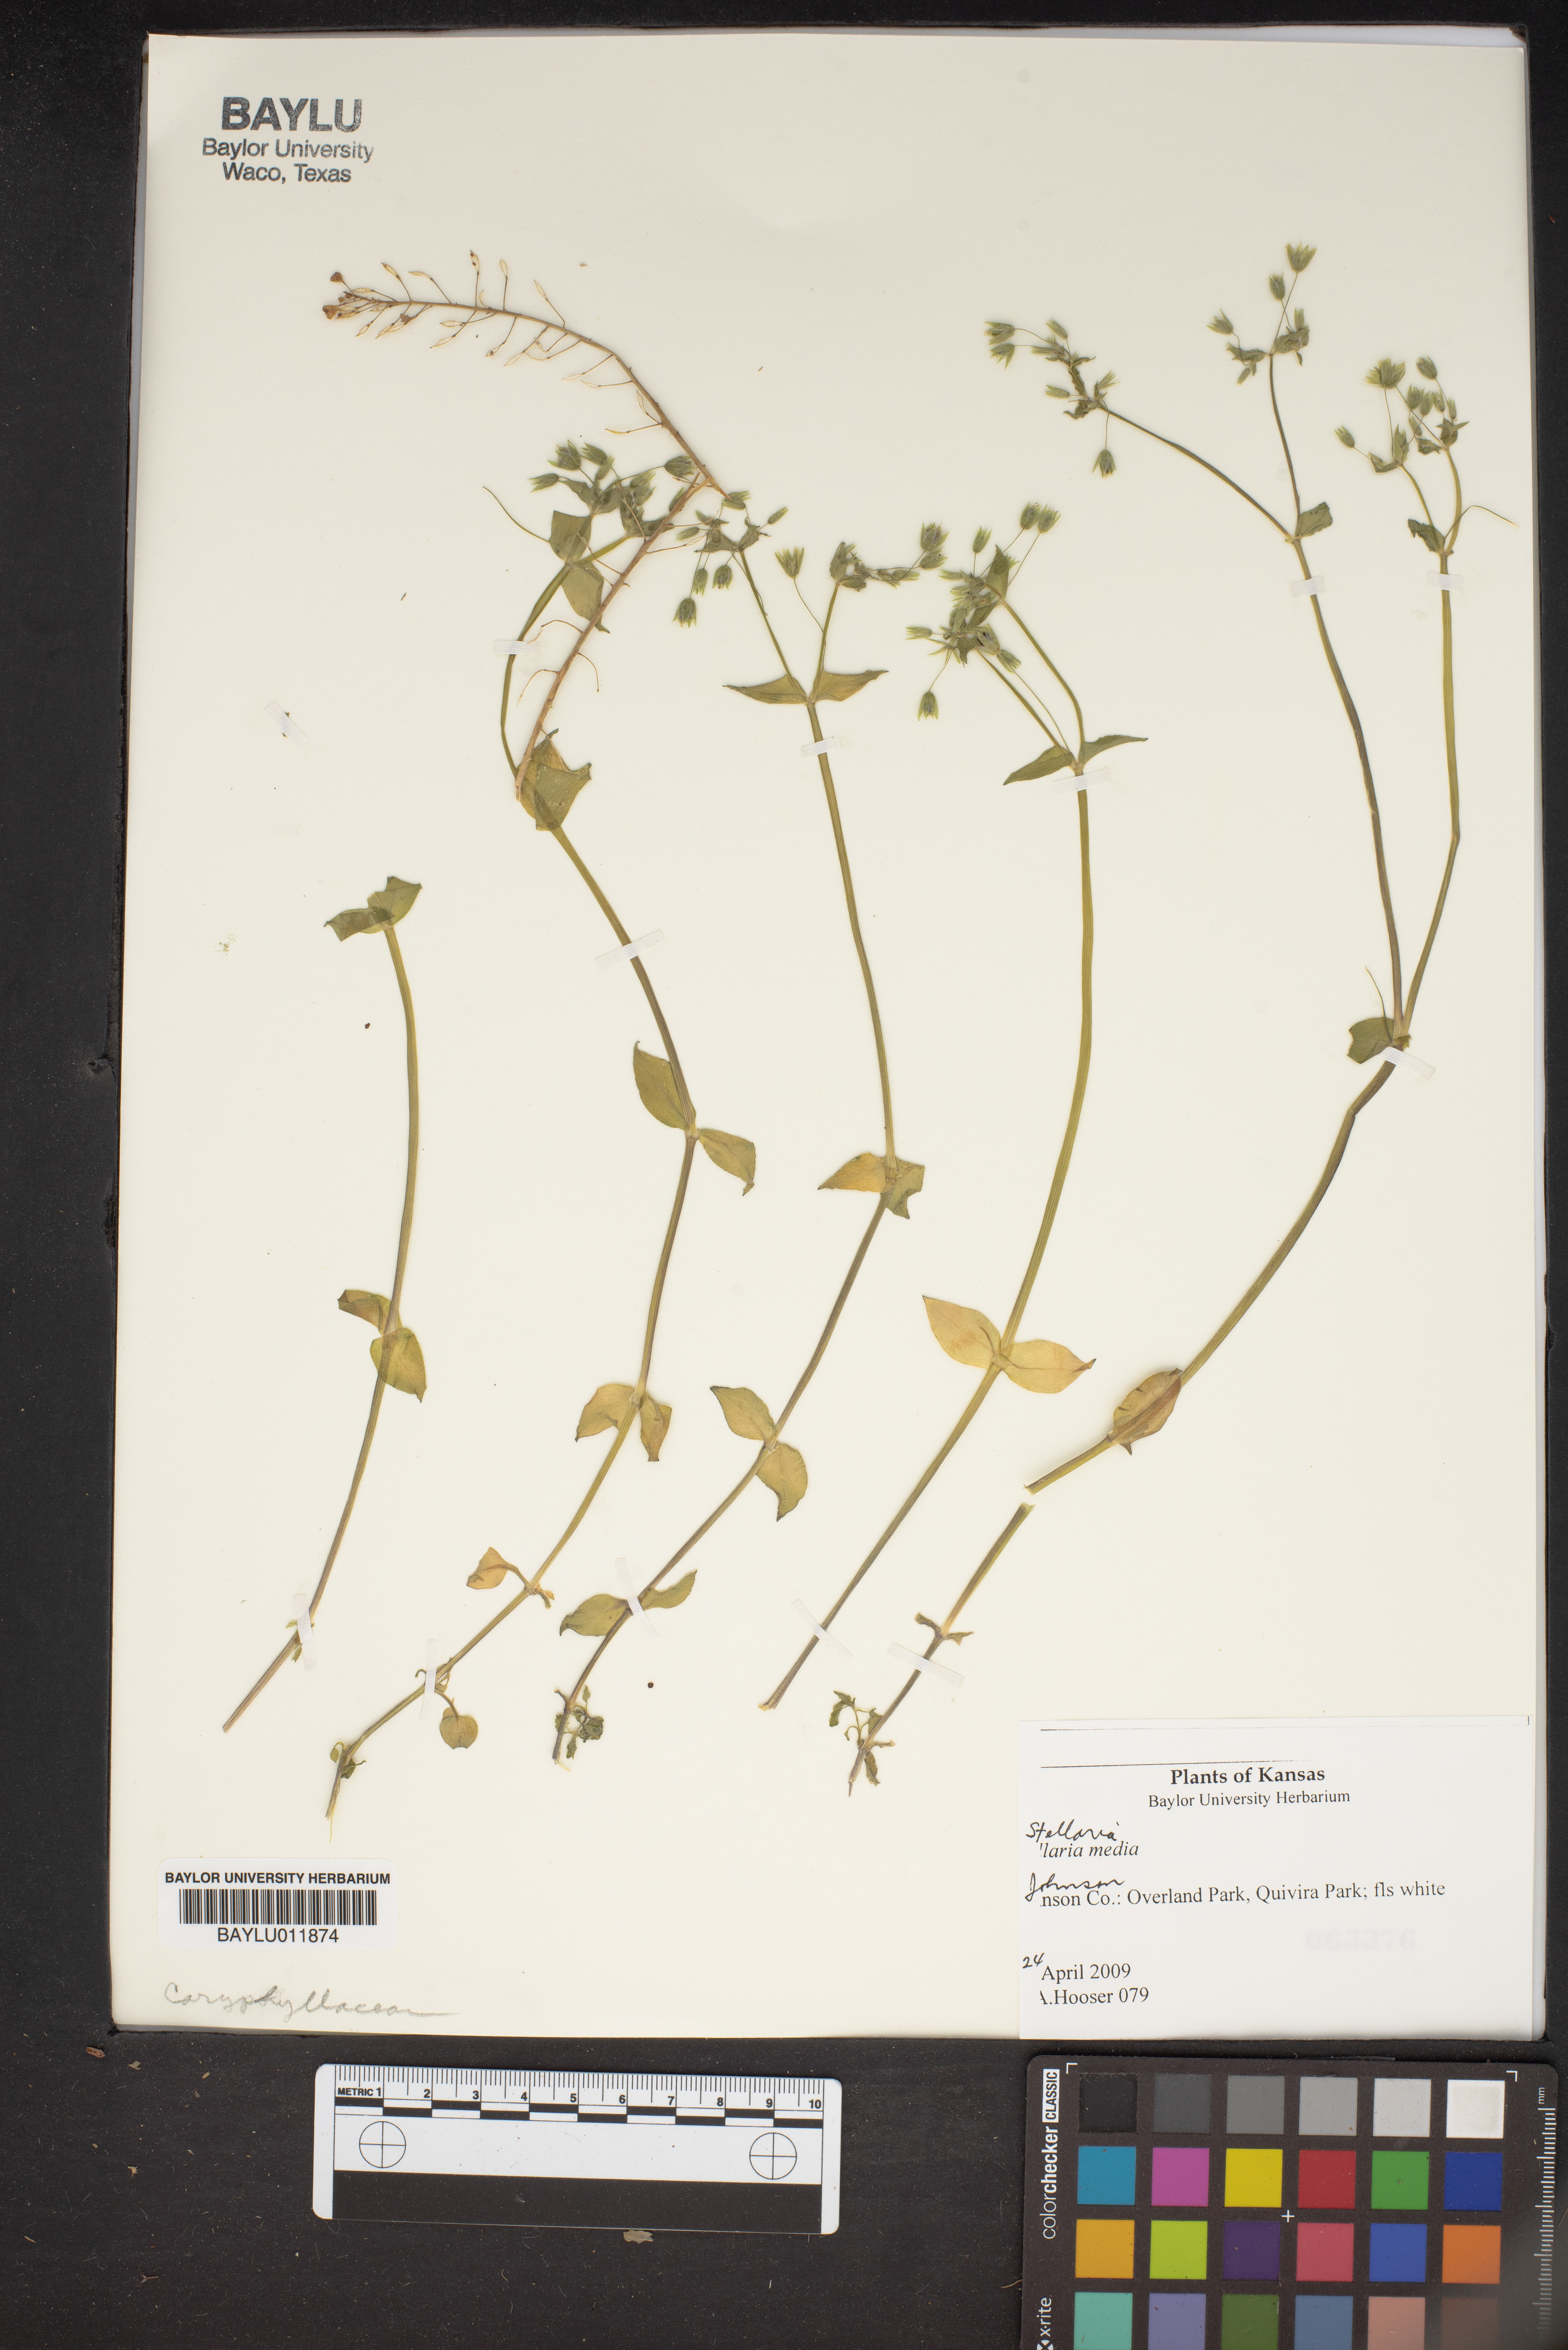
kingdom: Plantae
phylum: Tracheophyta
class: Magnoliopsida
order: Caryophyllales
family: Caryophyllaceae
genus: Stellaria
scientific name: Stellaria media
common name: Common chickweed
